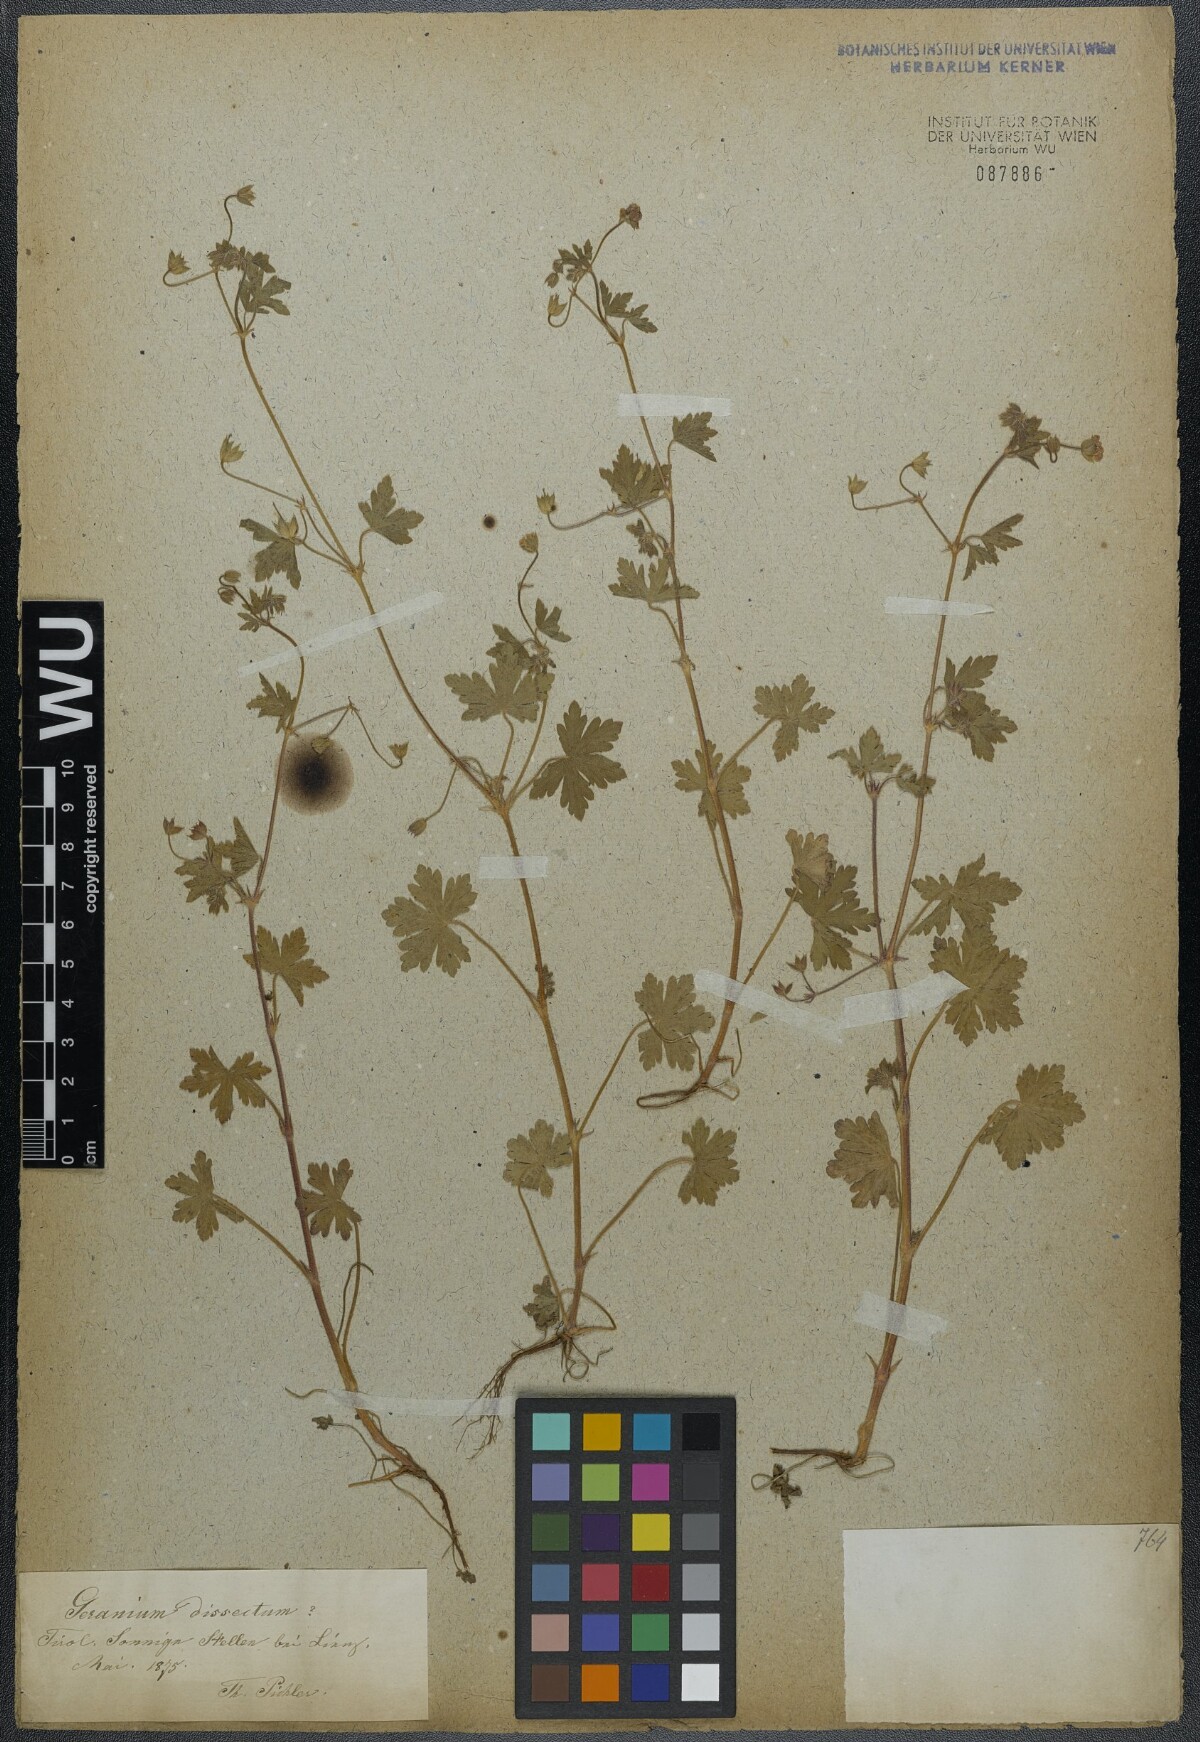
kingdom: Plantae
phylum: Tracheophyta
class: Magnoliopsida
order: Geraniales
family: Geraniaceae
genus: Geranium
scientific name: Geranium divaricatum
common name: Spreading crane's-bill
